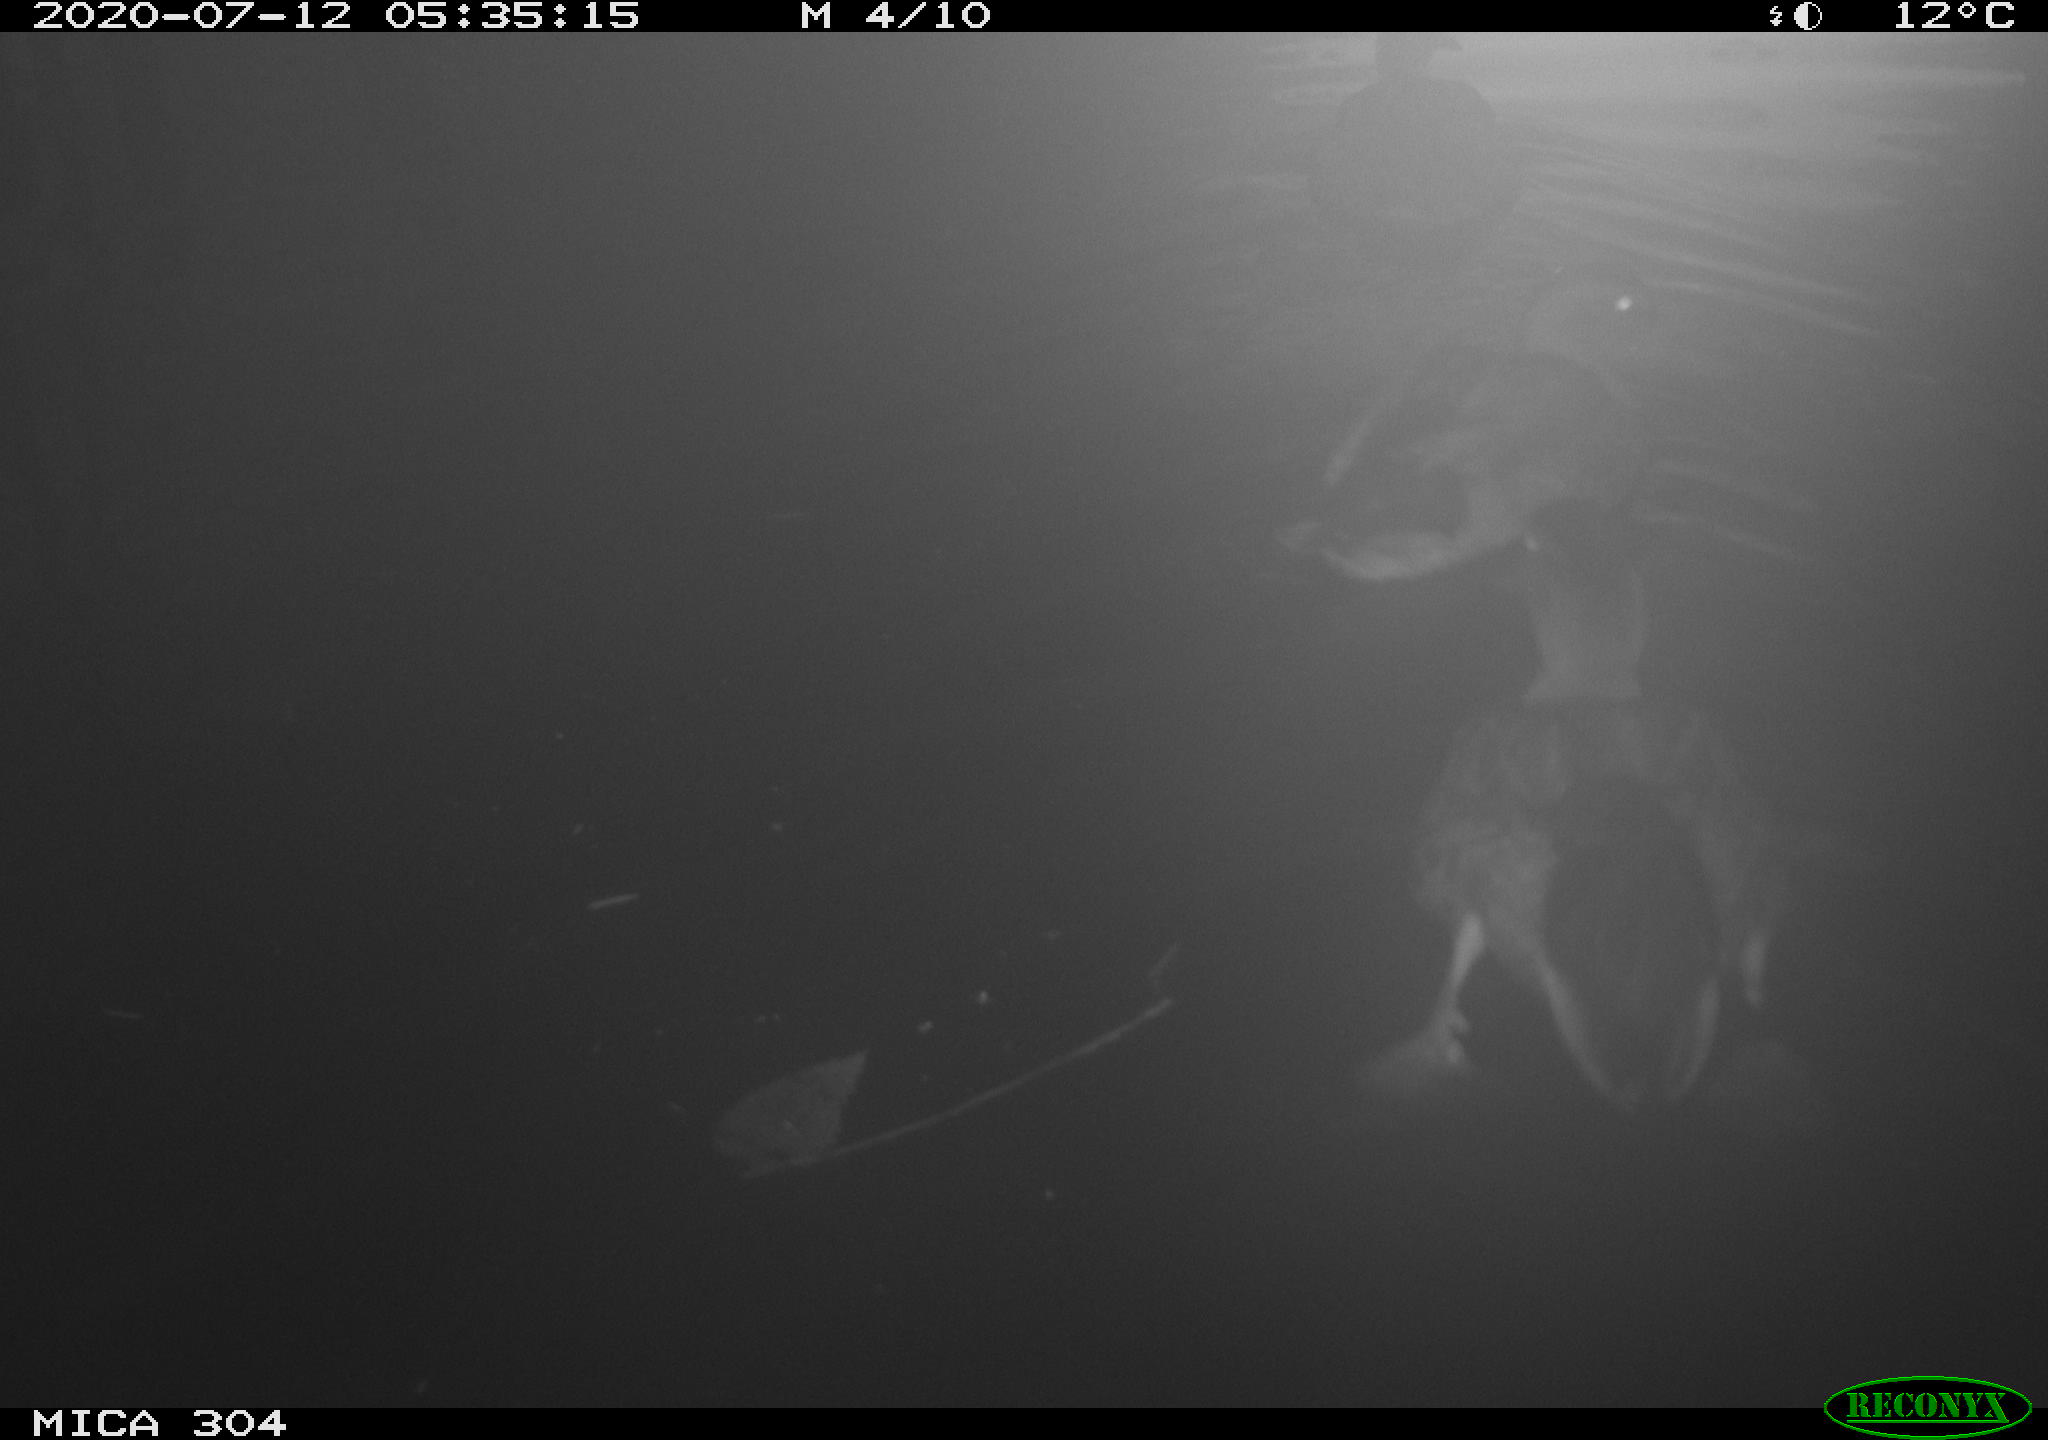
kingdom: Animalia
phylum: Chordata
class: Aves
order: Anseriformes
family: Anatidae
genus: Anas
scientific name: Anas platyrhynchos
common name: Mallard
